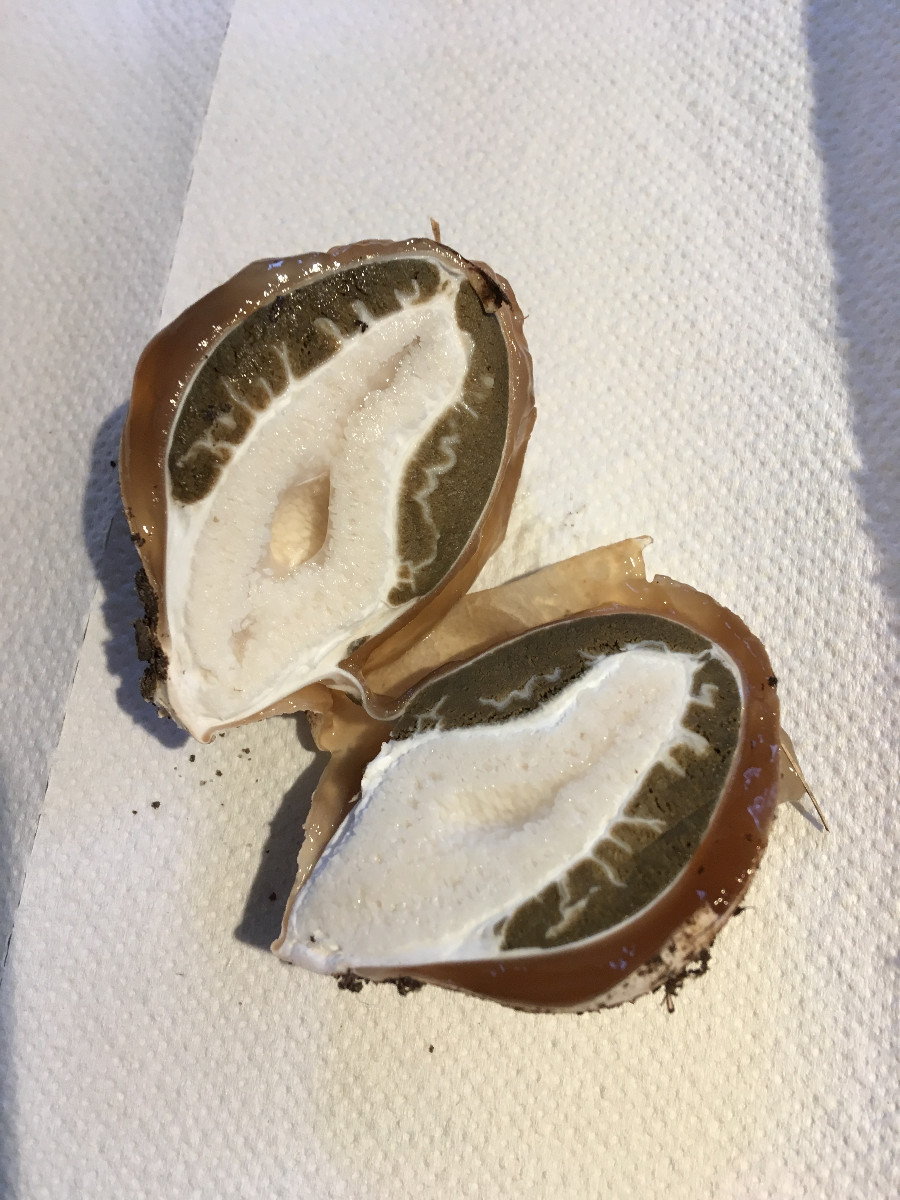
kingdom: Fungi
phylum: Basidiomycota
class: Agaricomycetes
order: Phallales
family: Phallaceae
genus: Phallus
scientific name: Phallus impudicus
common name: almindelig stinksvamp
